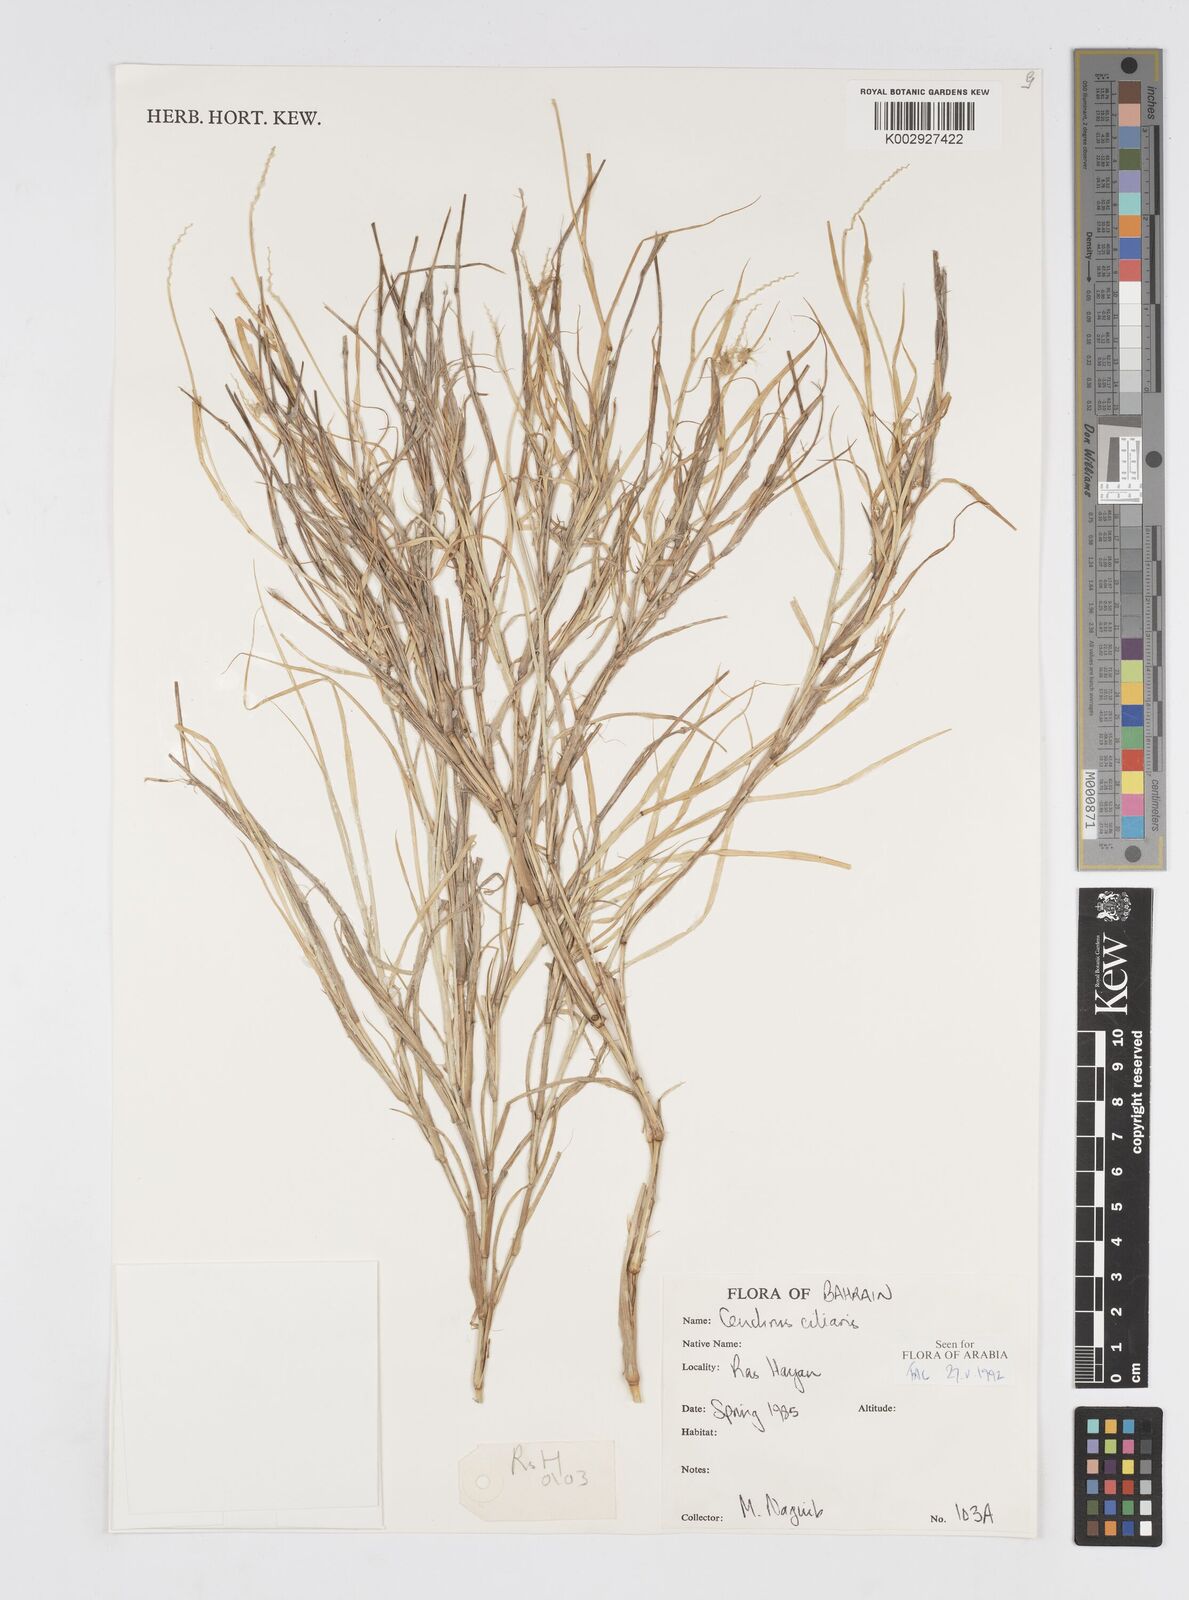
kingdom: Plantae
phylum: Tracheophyta
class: Liliopsida
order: Poales
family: Poaceae
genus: Cenchrus
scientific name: Cenchrus
